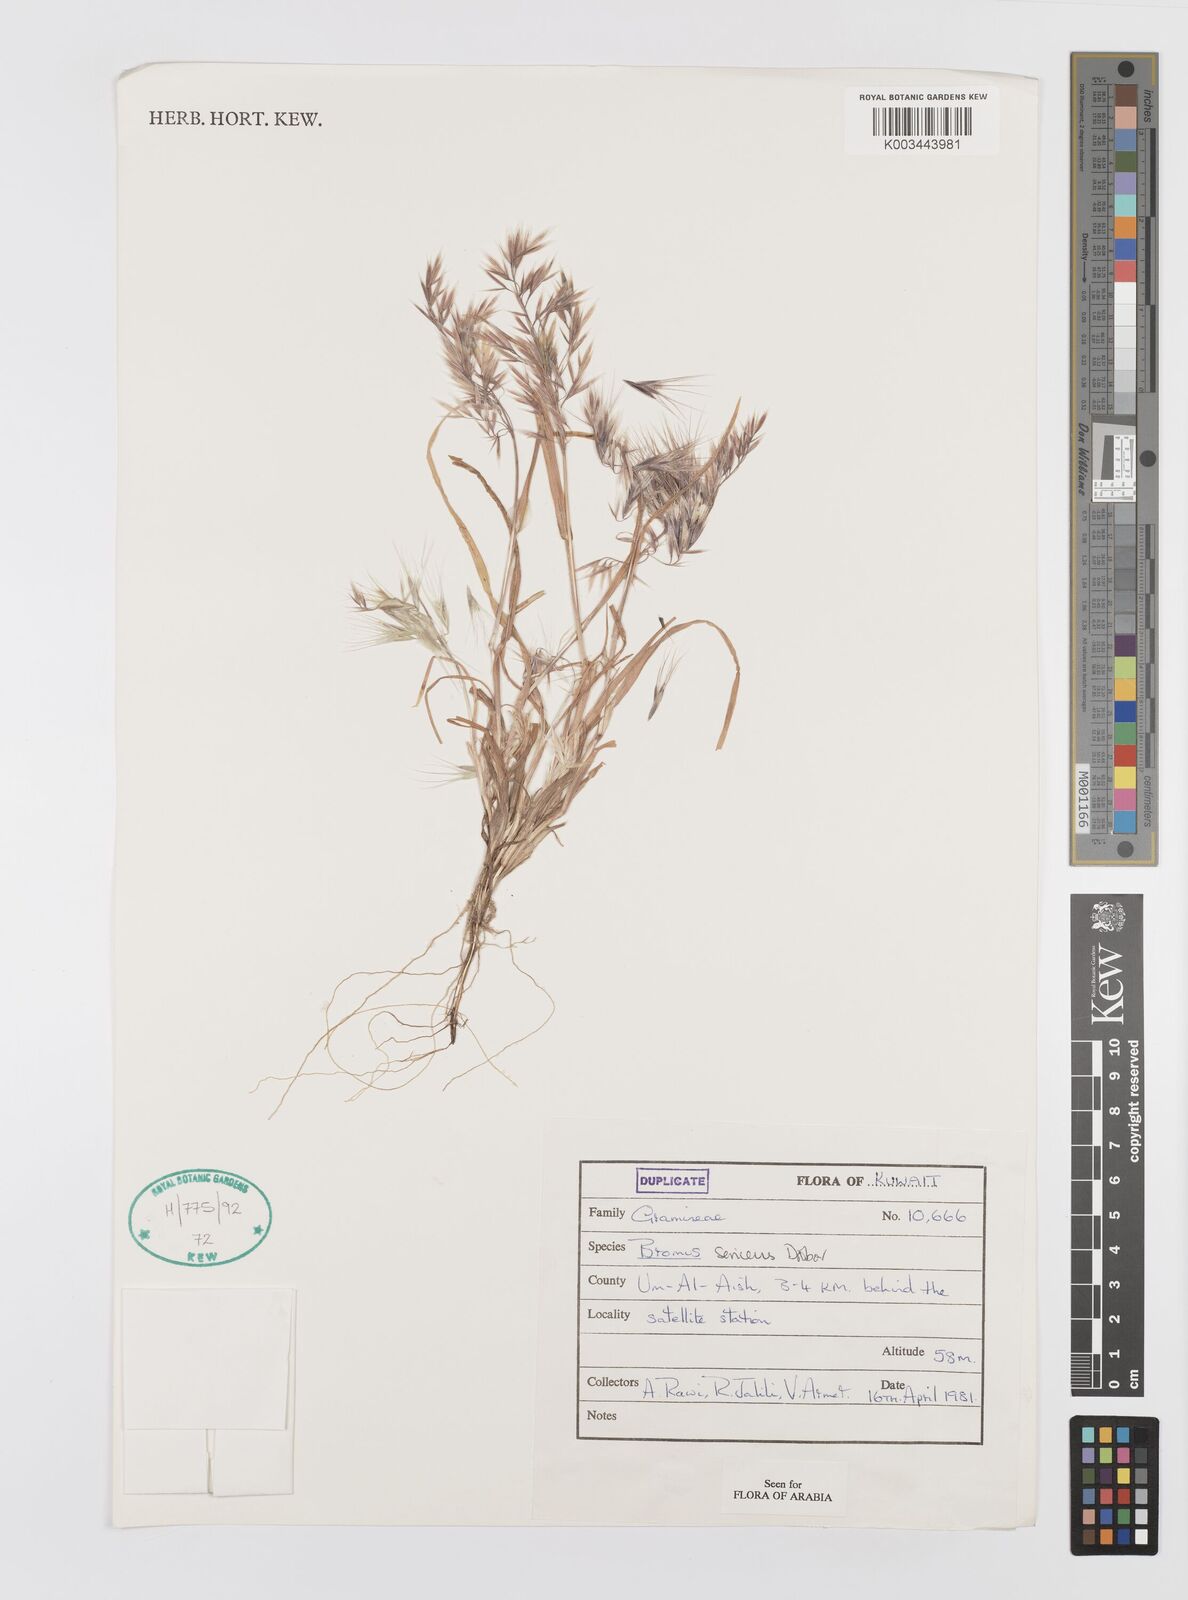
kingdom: Plantae
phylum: Tracheophyta
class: Liliopsida
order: Poales
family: Poaceae
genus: Bromus
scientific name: Bromus moeszii
